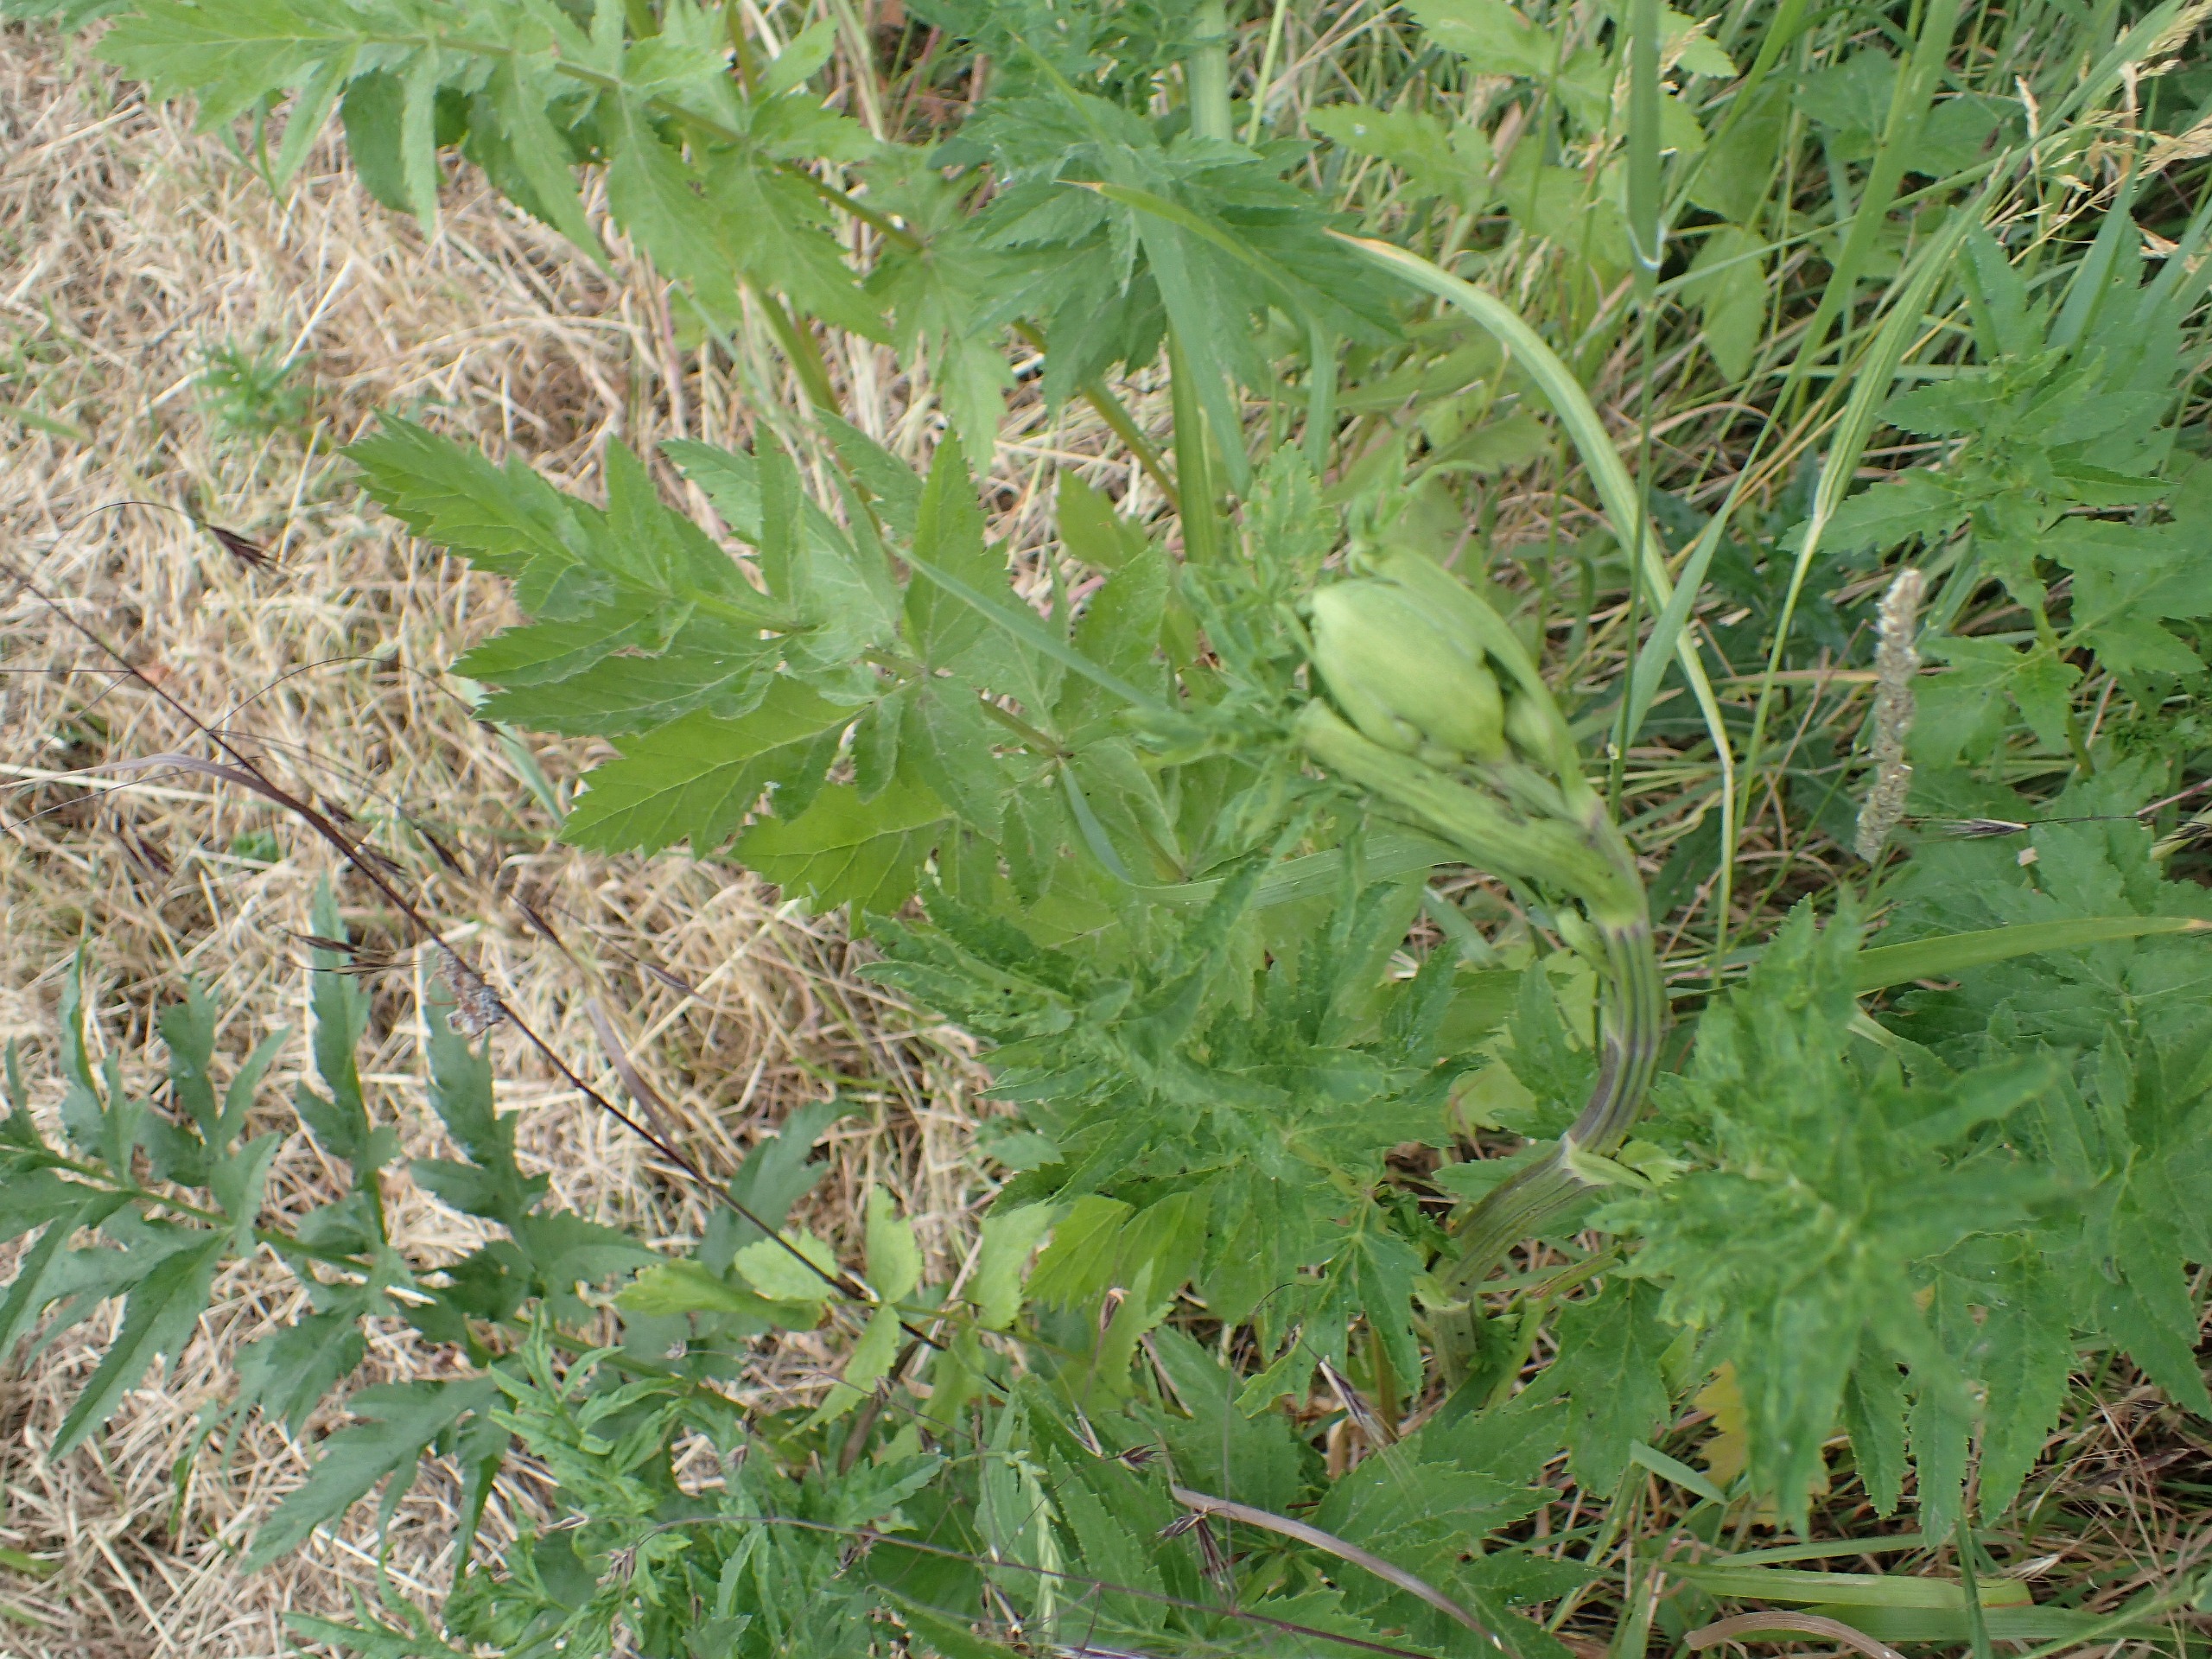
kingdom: Plantae
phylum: Tracheophyta
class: Magnoliopsida
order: Apiales
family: Apiaceae
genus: Pastinaca
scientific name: Pastinaca sativa
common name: Pastinak
